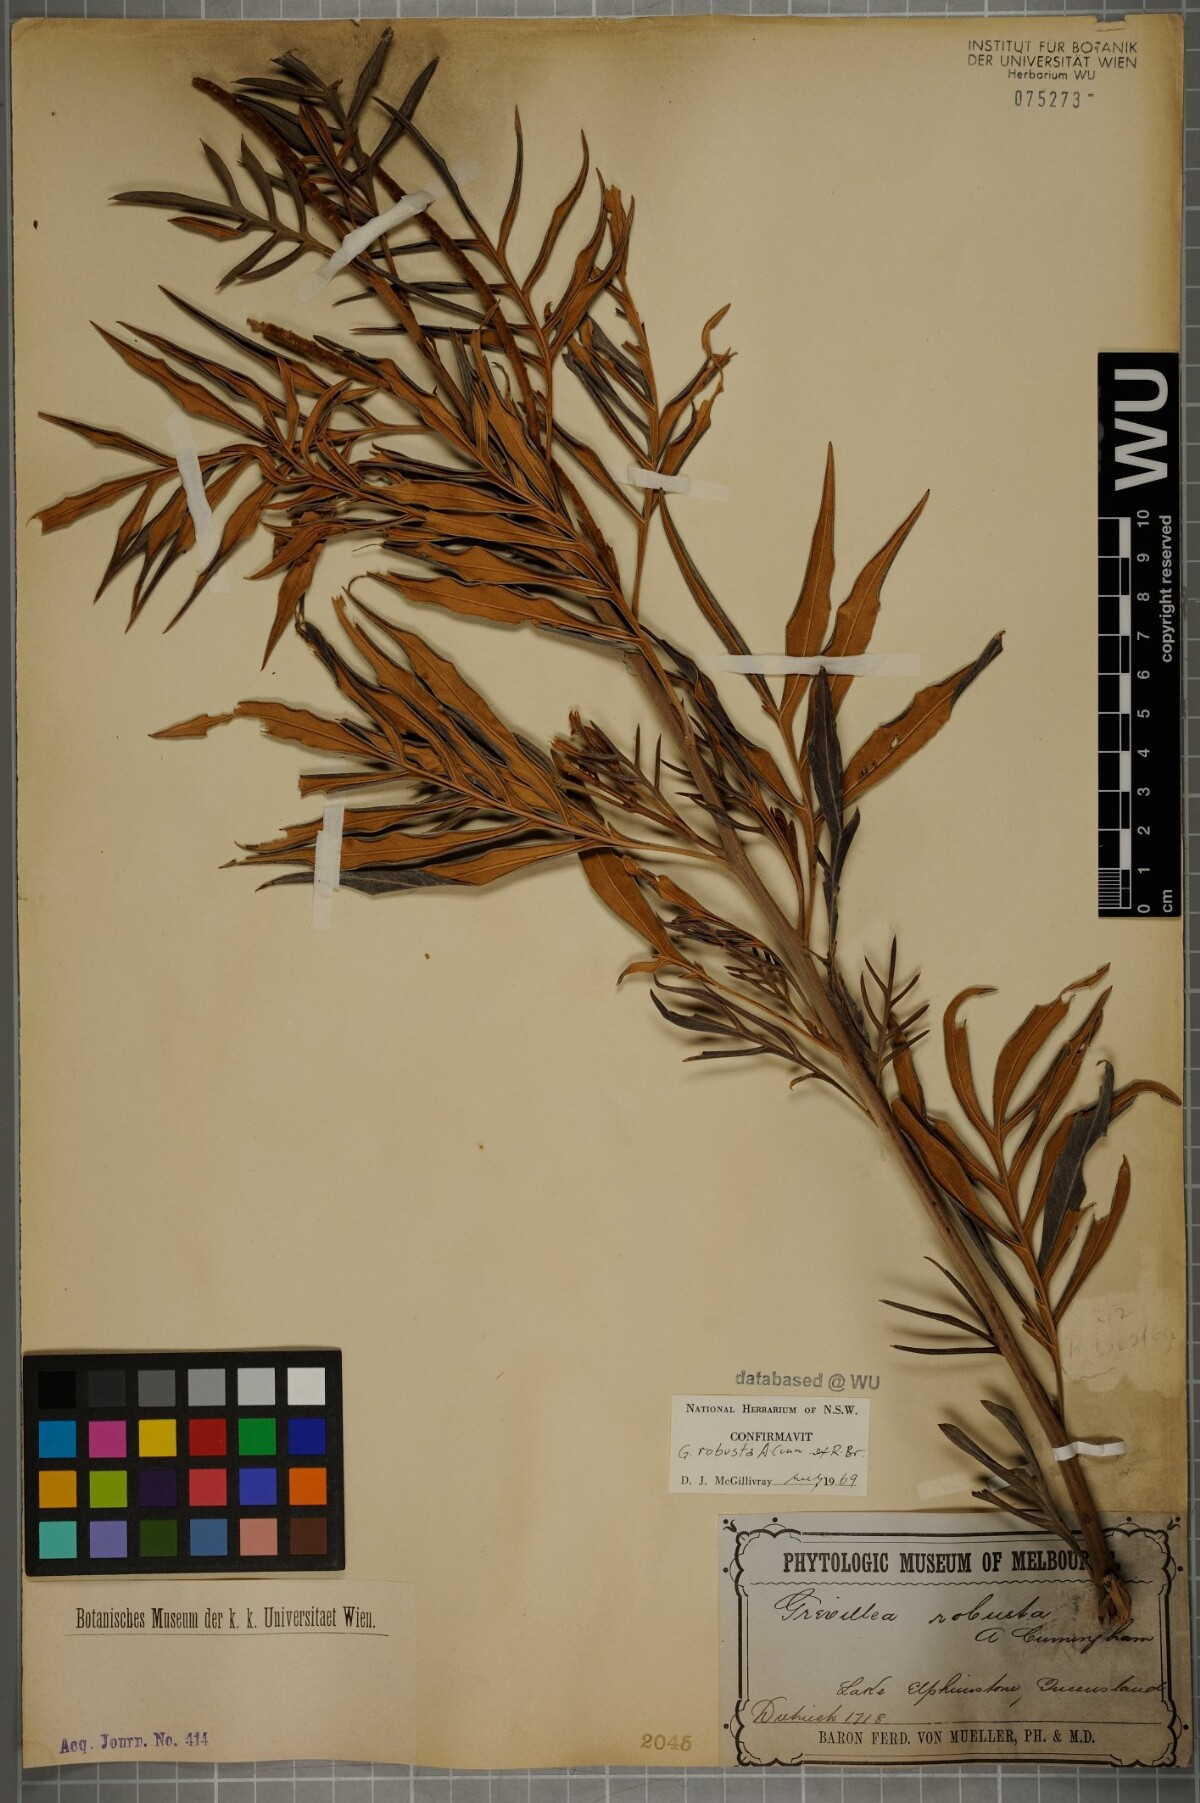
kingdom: Plantae
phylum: Tracheophyta
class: Magnoliopsida
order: Proteales
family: Proteaceae
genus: Grevillea
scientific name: Grevillea robusta
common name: Silkoak
